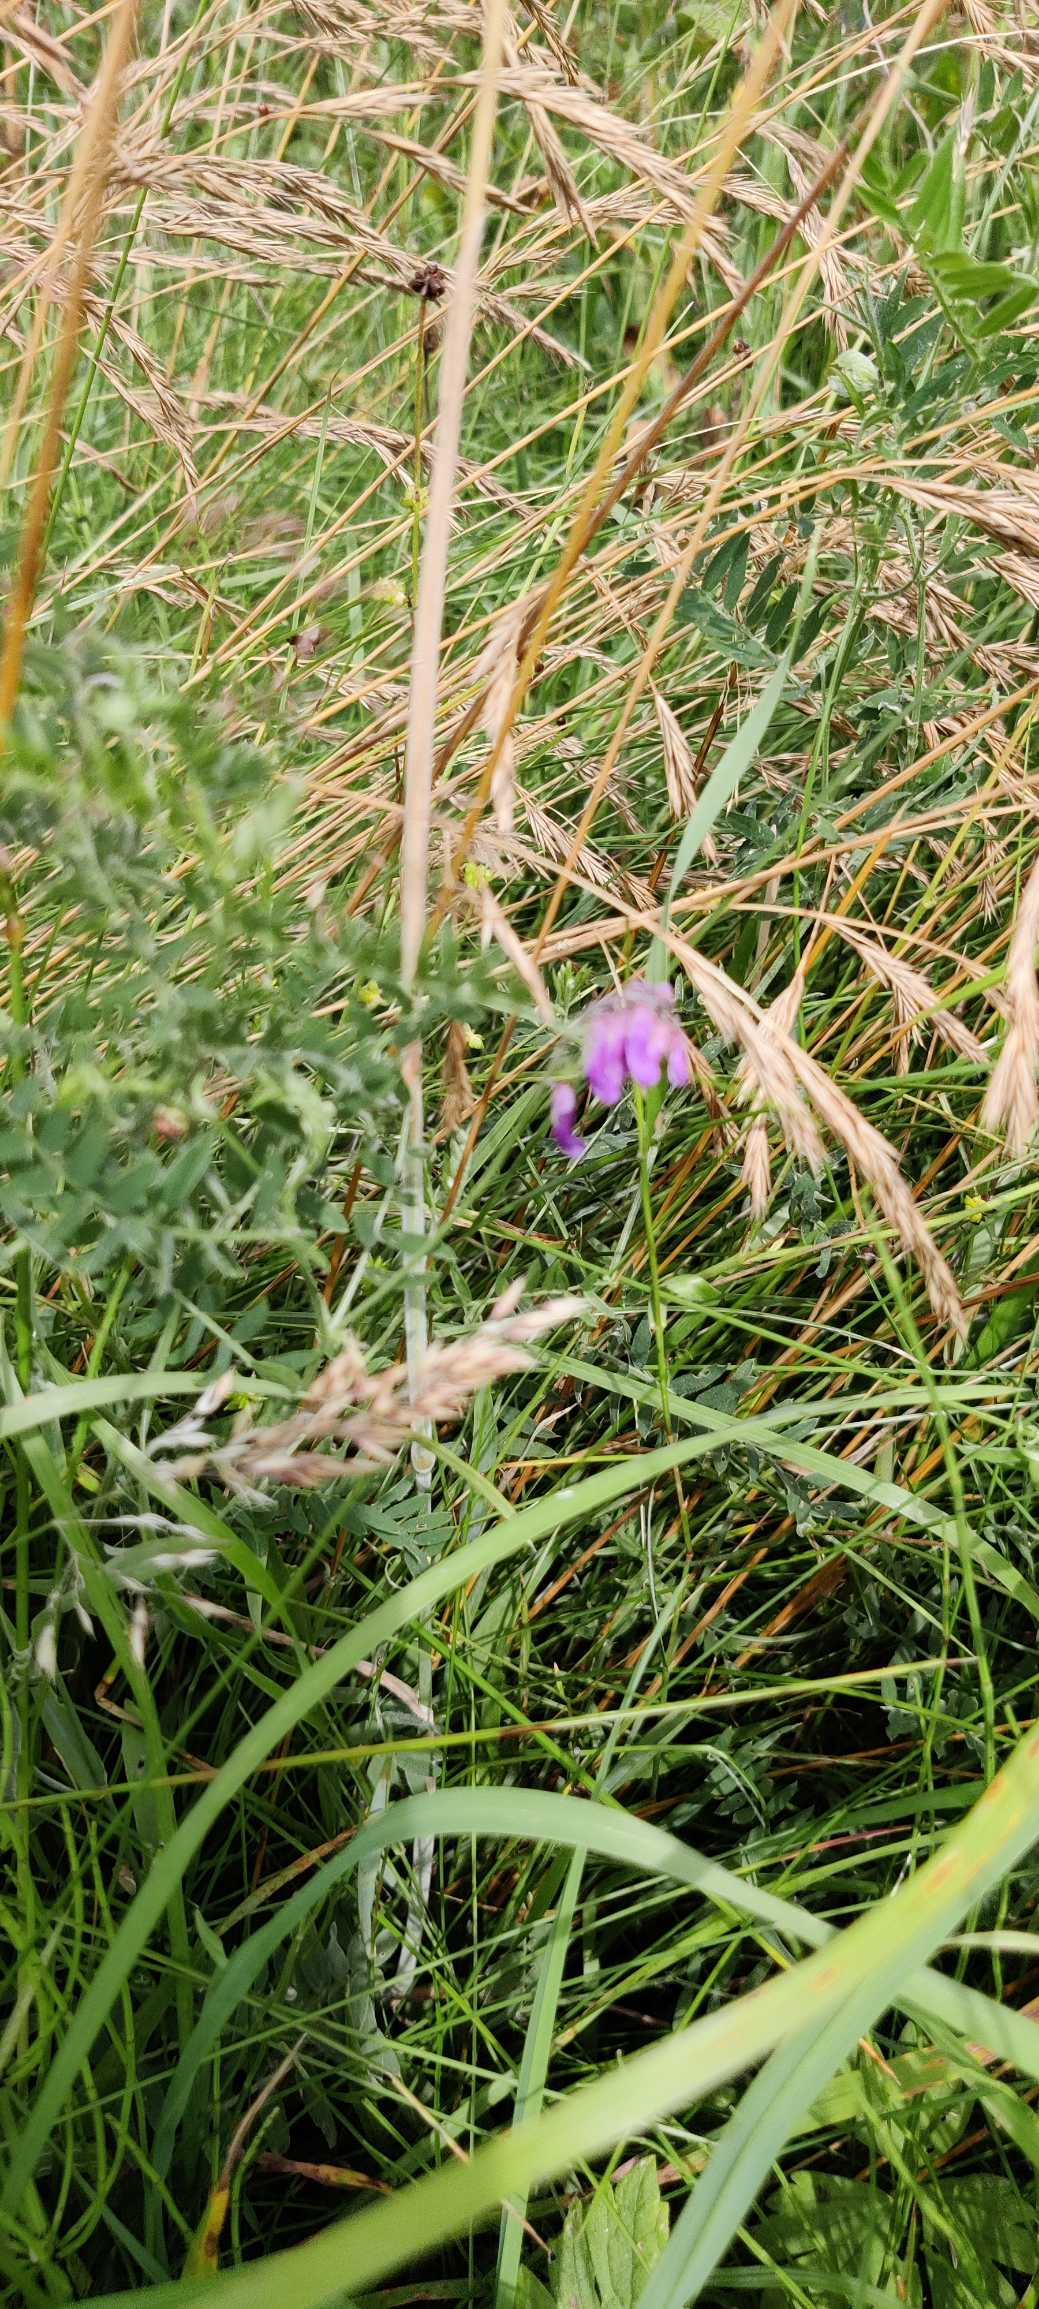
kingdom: Plantae
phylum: Tracheophyta
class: Magnoliopsida
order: Fabales
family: Fabaceae
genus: Vicia
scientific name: Vicia cracca
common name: Muse-vikke
